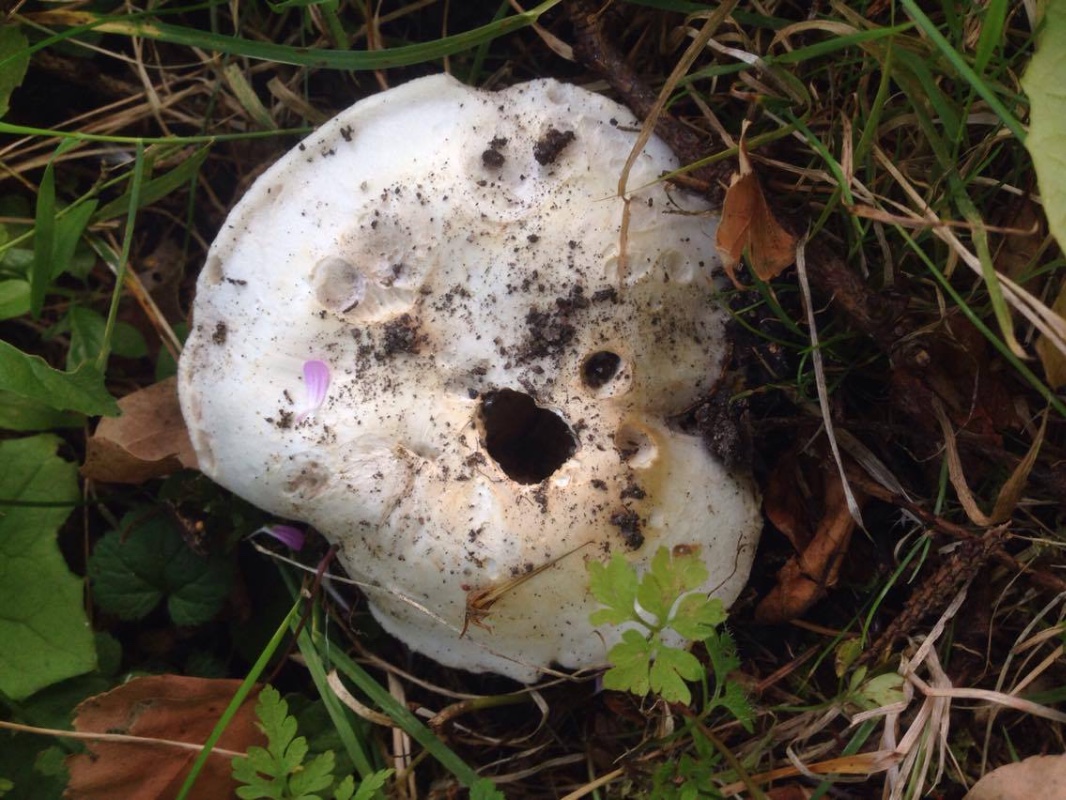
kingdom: Fungi
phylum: Basidiomycota
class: Agaricomycetes
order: Agaricales
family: Agaricaceae
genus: Agaricus
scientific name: Agaricus bitorquis
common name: vej-champignon
